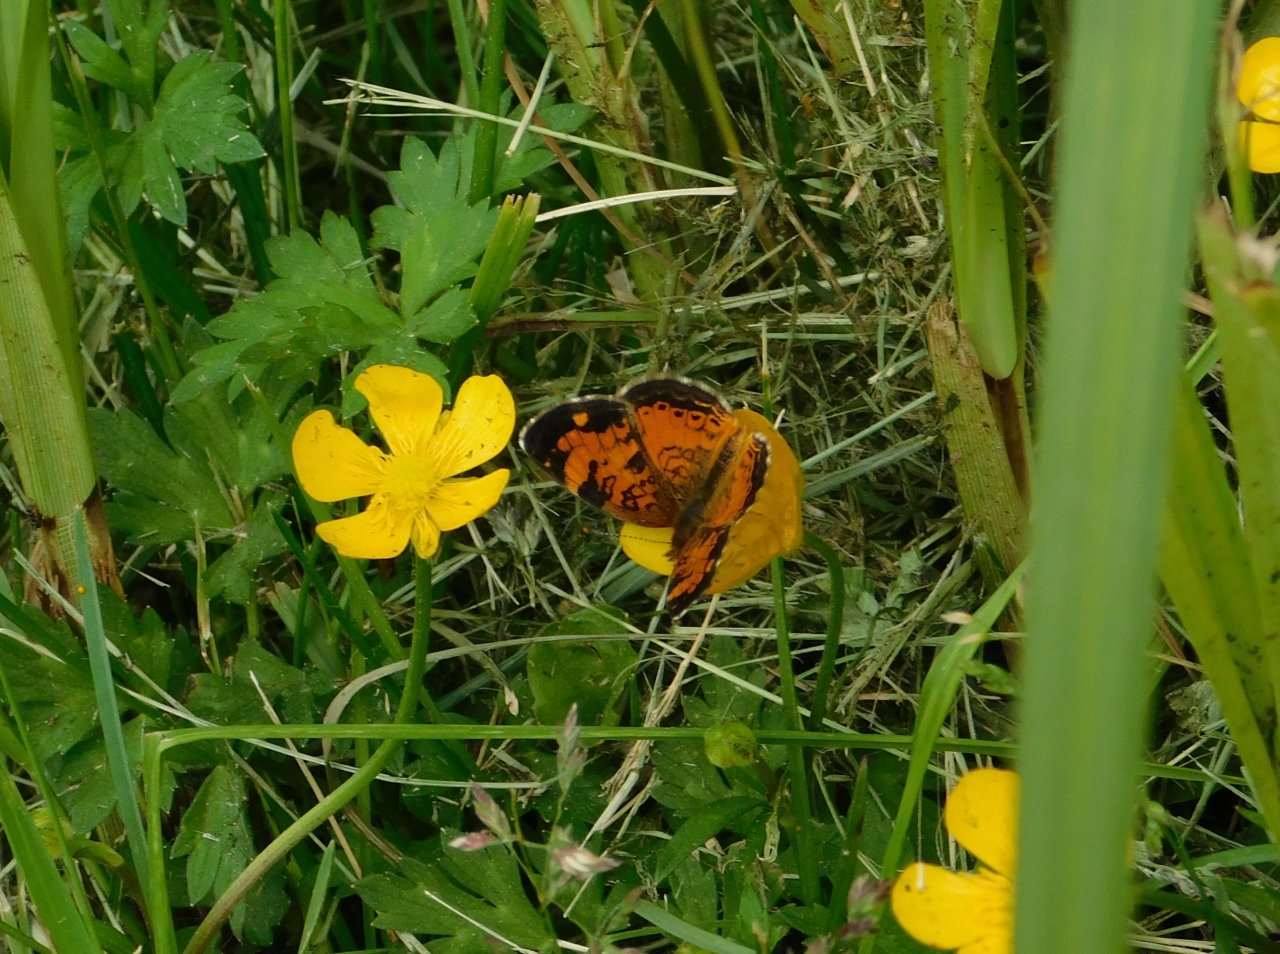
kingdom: Animalia
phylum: Arthropoda
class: Insecta
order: Lepidoptera
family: Nymphalidae
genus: Phyciodes
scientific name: Phyciodes tharos
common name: Northern Crescent
